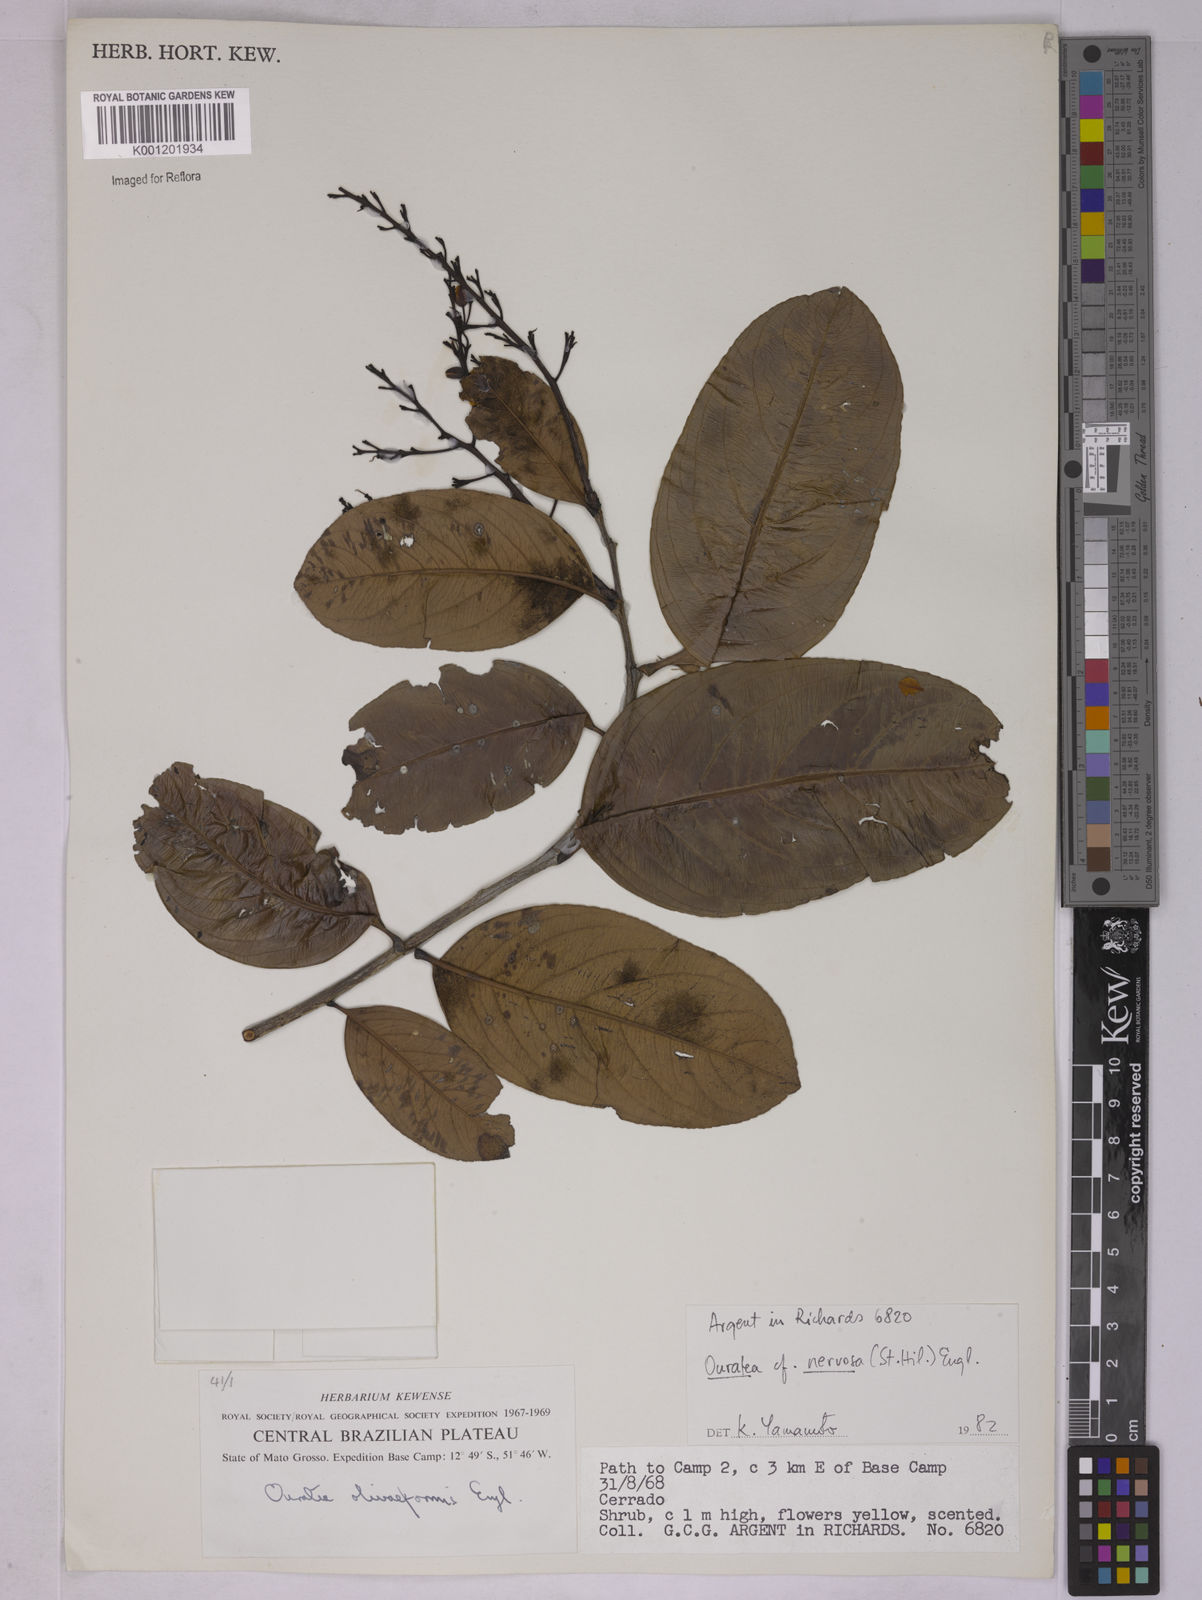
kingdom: Plantae
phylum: Tracheophyta
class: Magnoliopsida
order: Malpighiales
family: Ochnaceae
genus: Ouratea
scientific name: Ouratea nervosa
